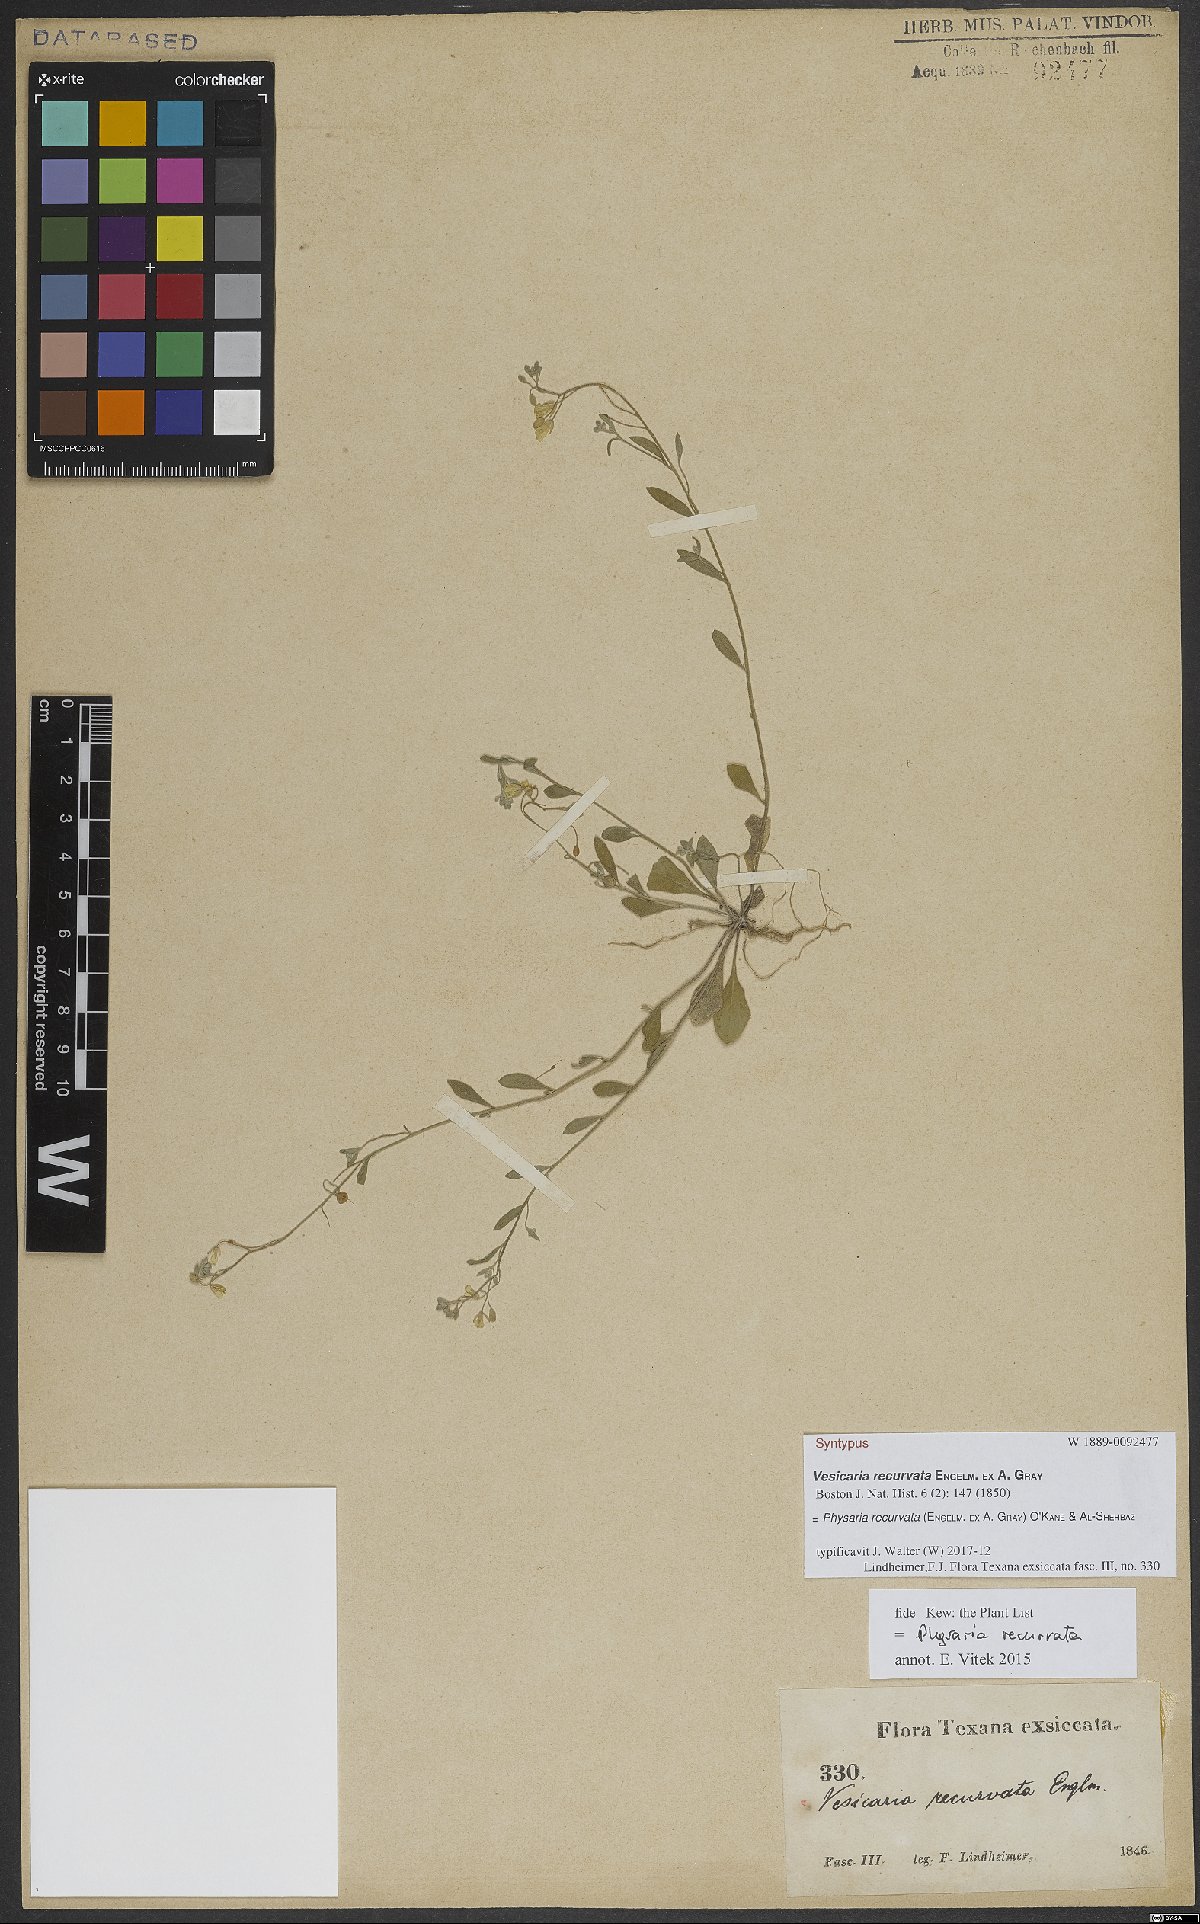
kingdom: Plantae
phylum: Tracheophyta
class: Magnoliopsida
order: Brassicales
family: Brassicaceae
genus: Physaria
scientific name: Physaria recurvata
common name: Gaslight bladderpod
